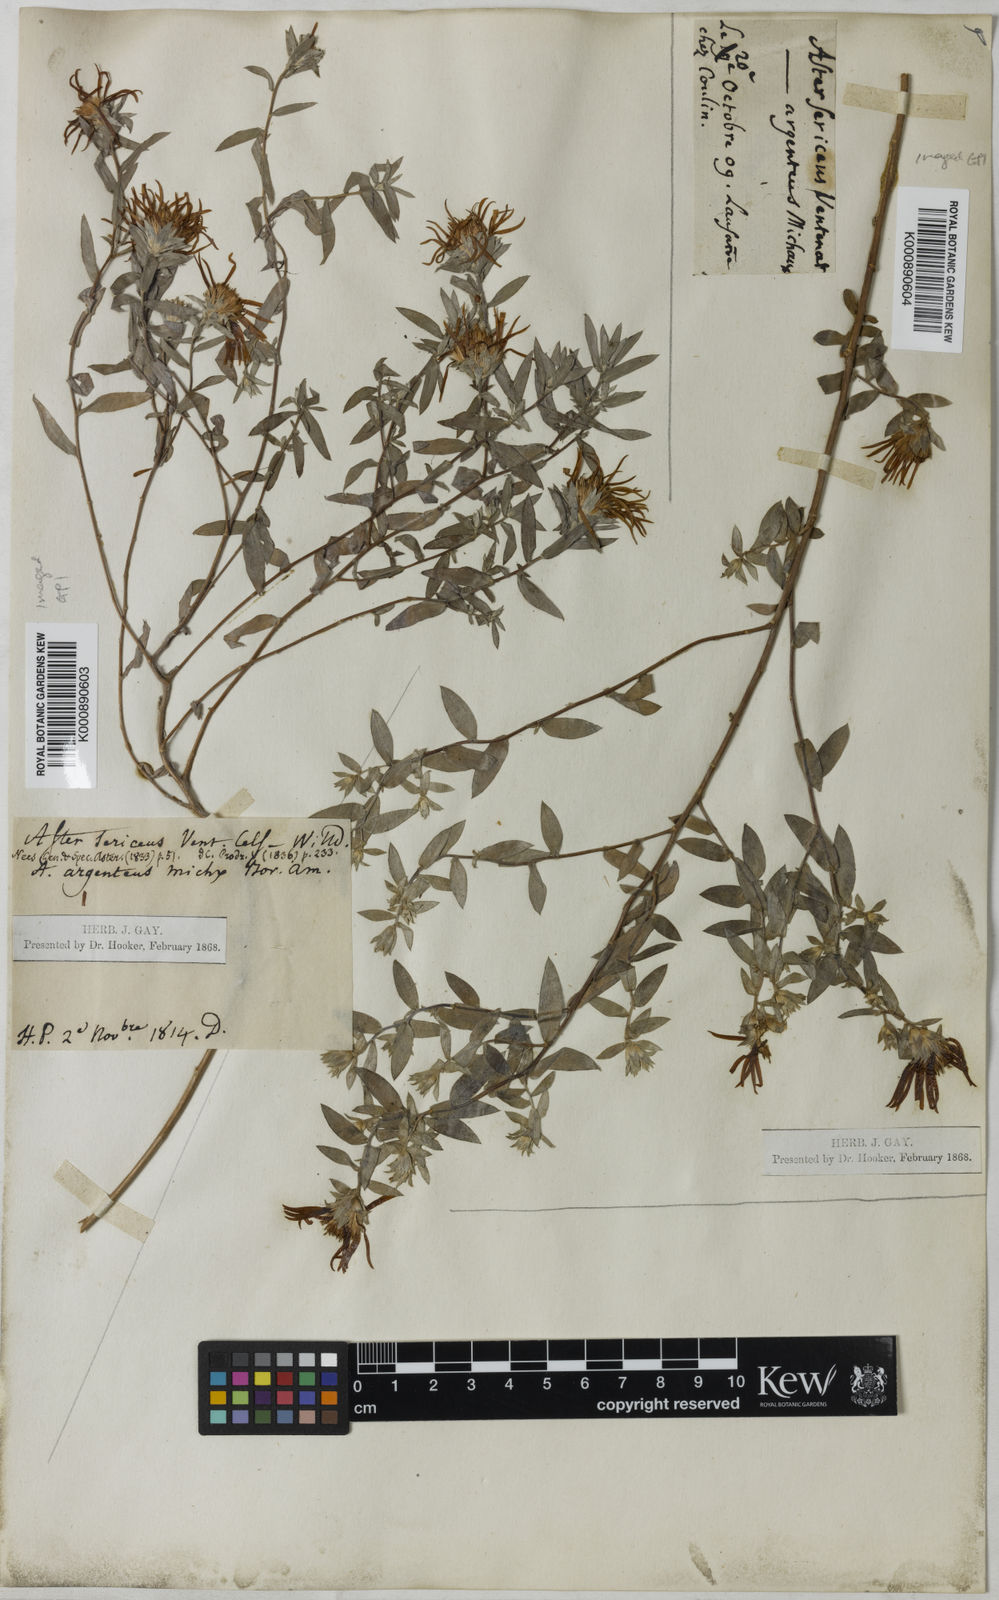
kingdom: Plantae
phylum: Tracheophyta
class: Magnoliopsida
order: Asterales
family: Asteraceae
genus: Symphyotrichum
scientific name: Symphyotrichum sericeum
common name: Silky aster
